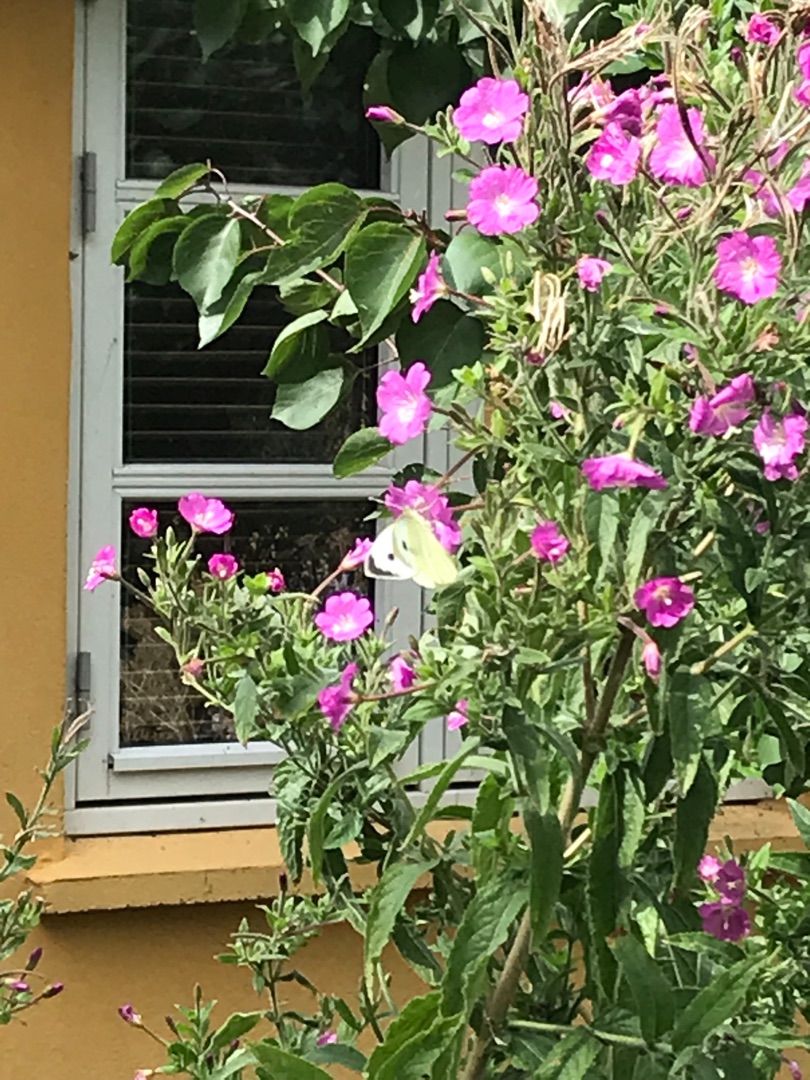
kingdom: Plantae
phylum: Tracheophyta
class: Magnoliopsida
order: Myrtales
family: Onagraceae
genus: Epilobium
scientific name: Epilobium hirsutum
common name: Lådden dueurt
